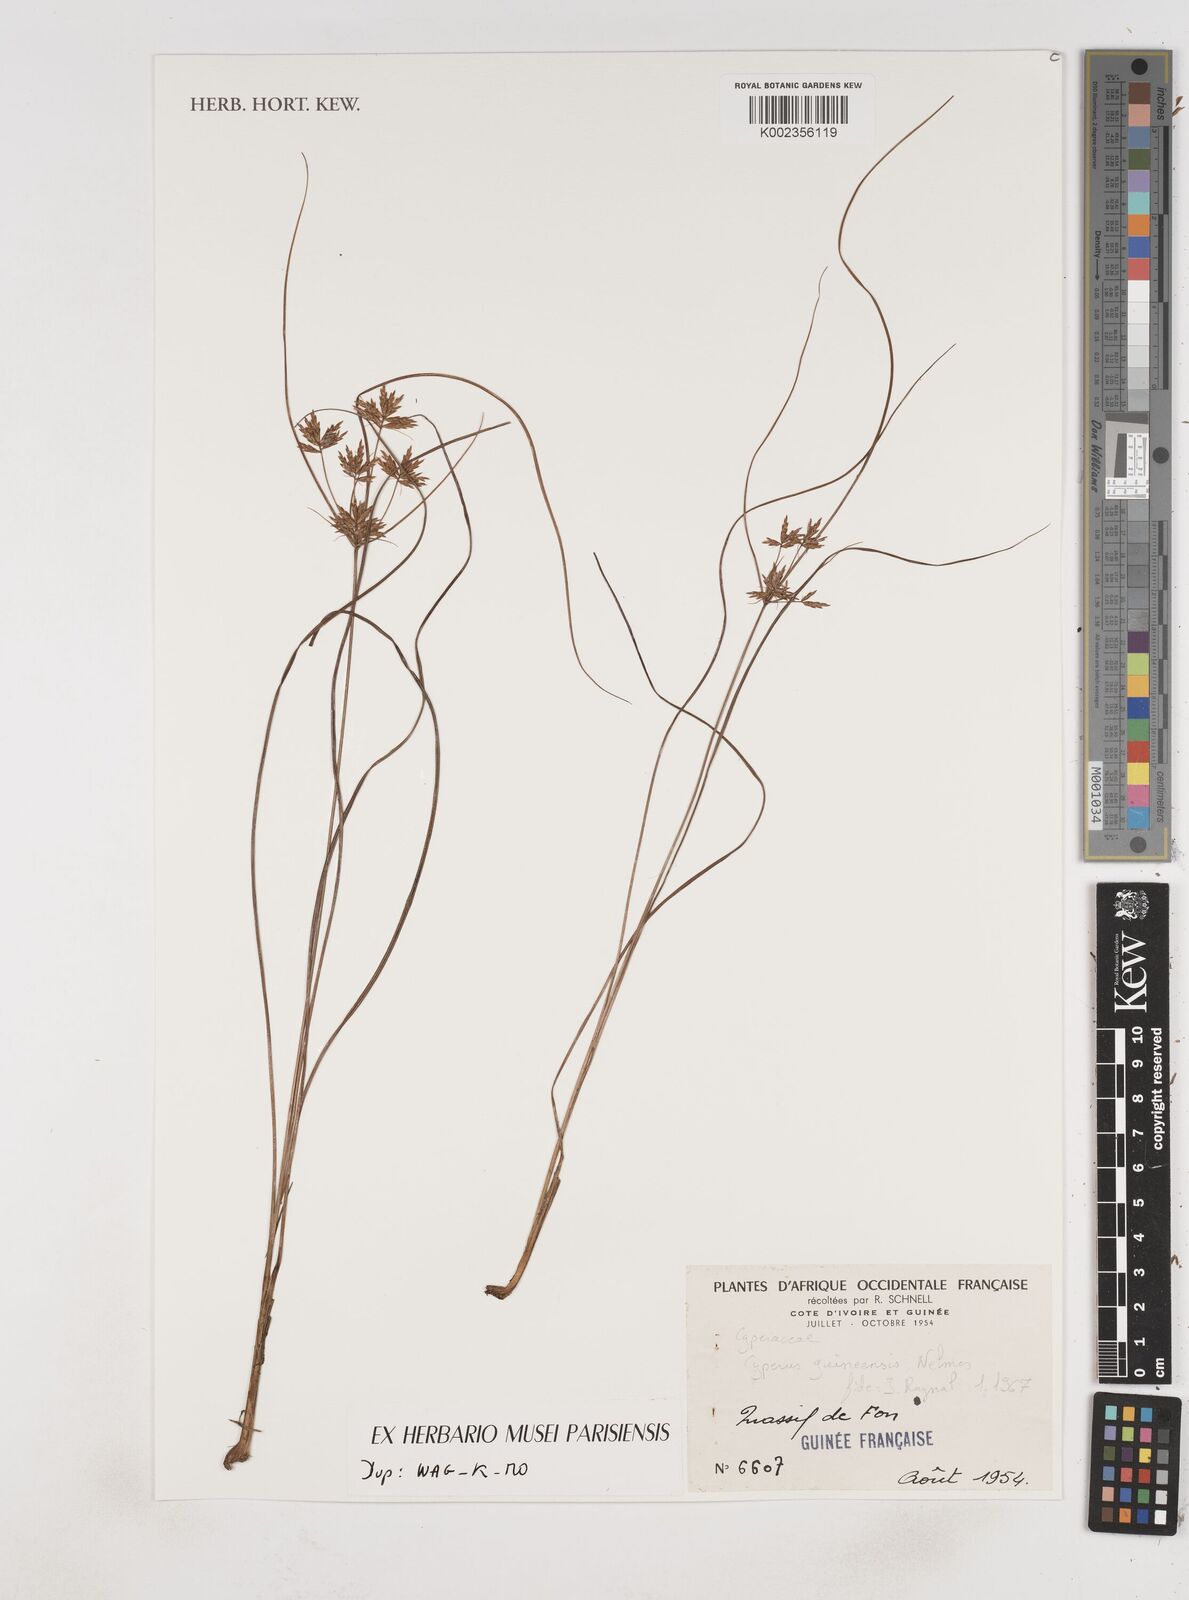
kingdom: Plantae
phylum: Tracheophyta
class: Liliopsida
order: Poales
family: Cyperaceae
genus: Cyperus
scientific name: Cyperus tenuiculmis
